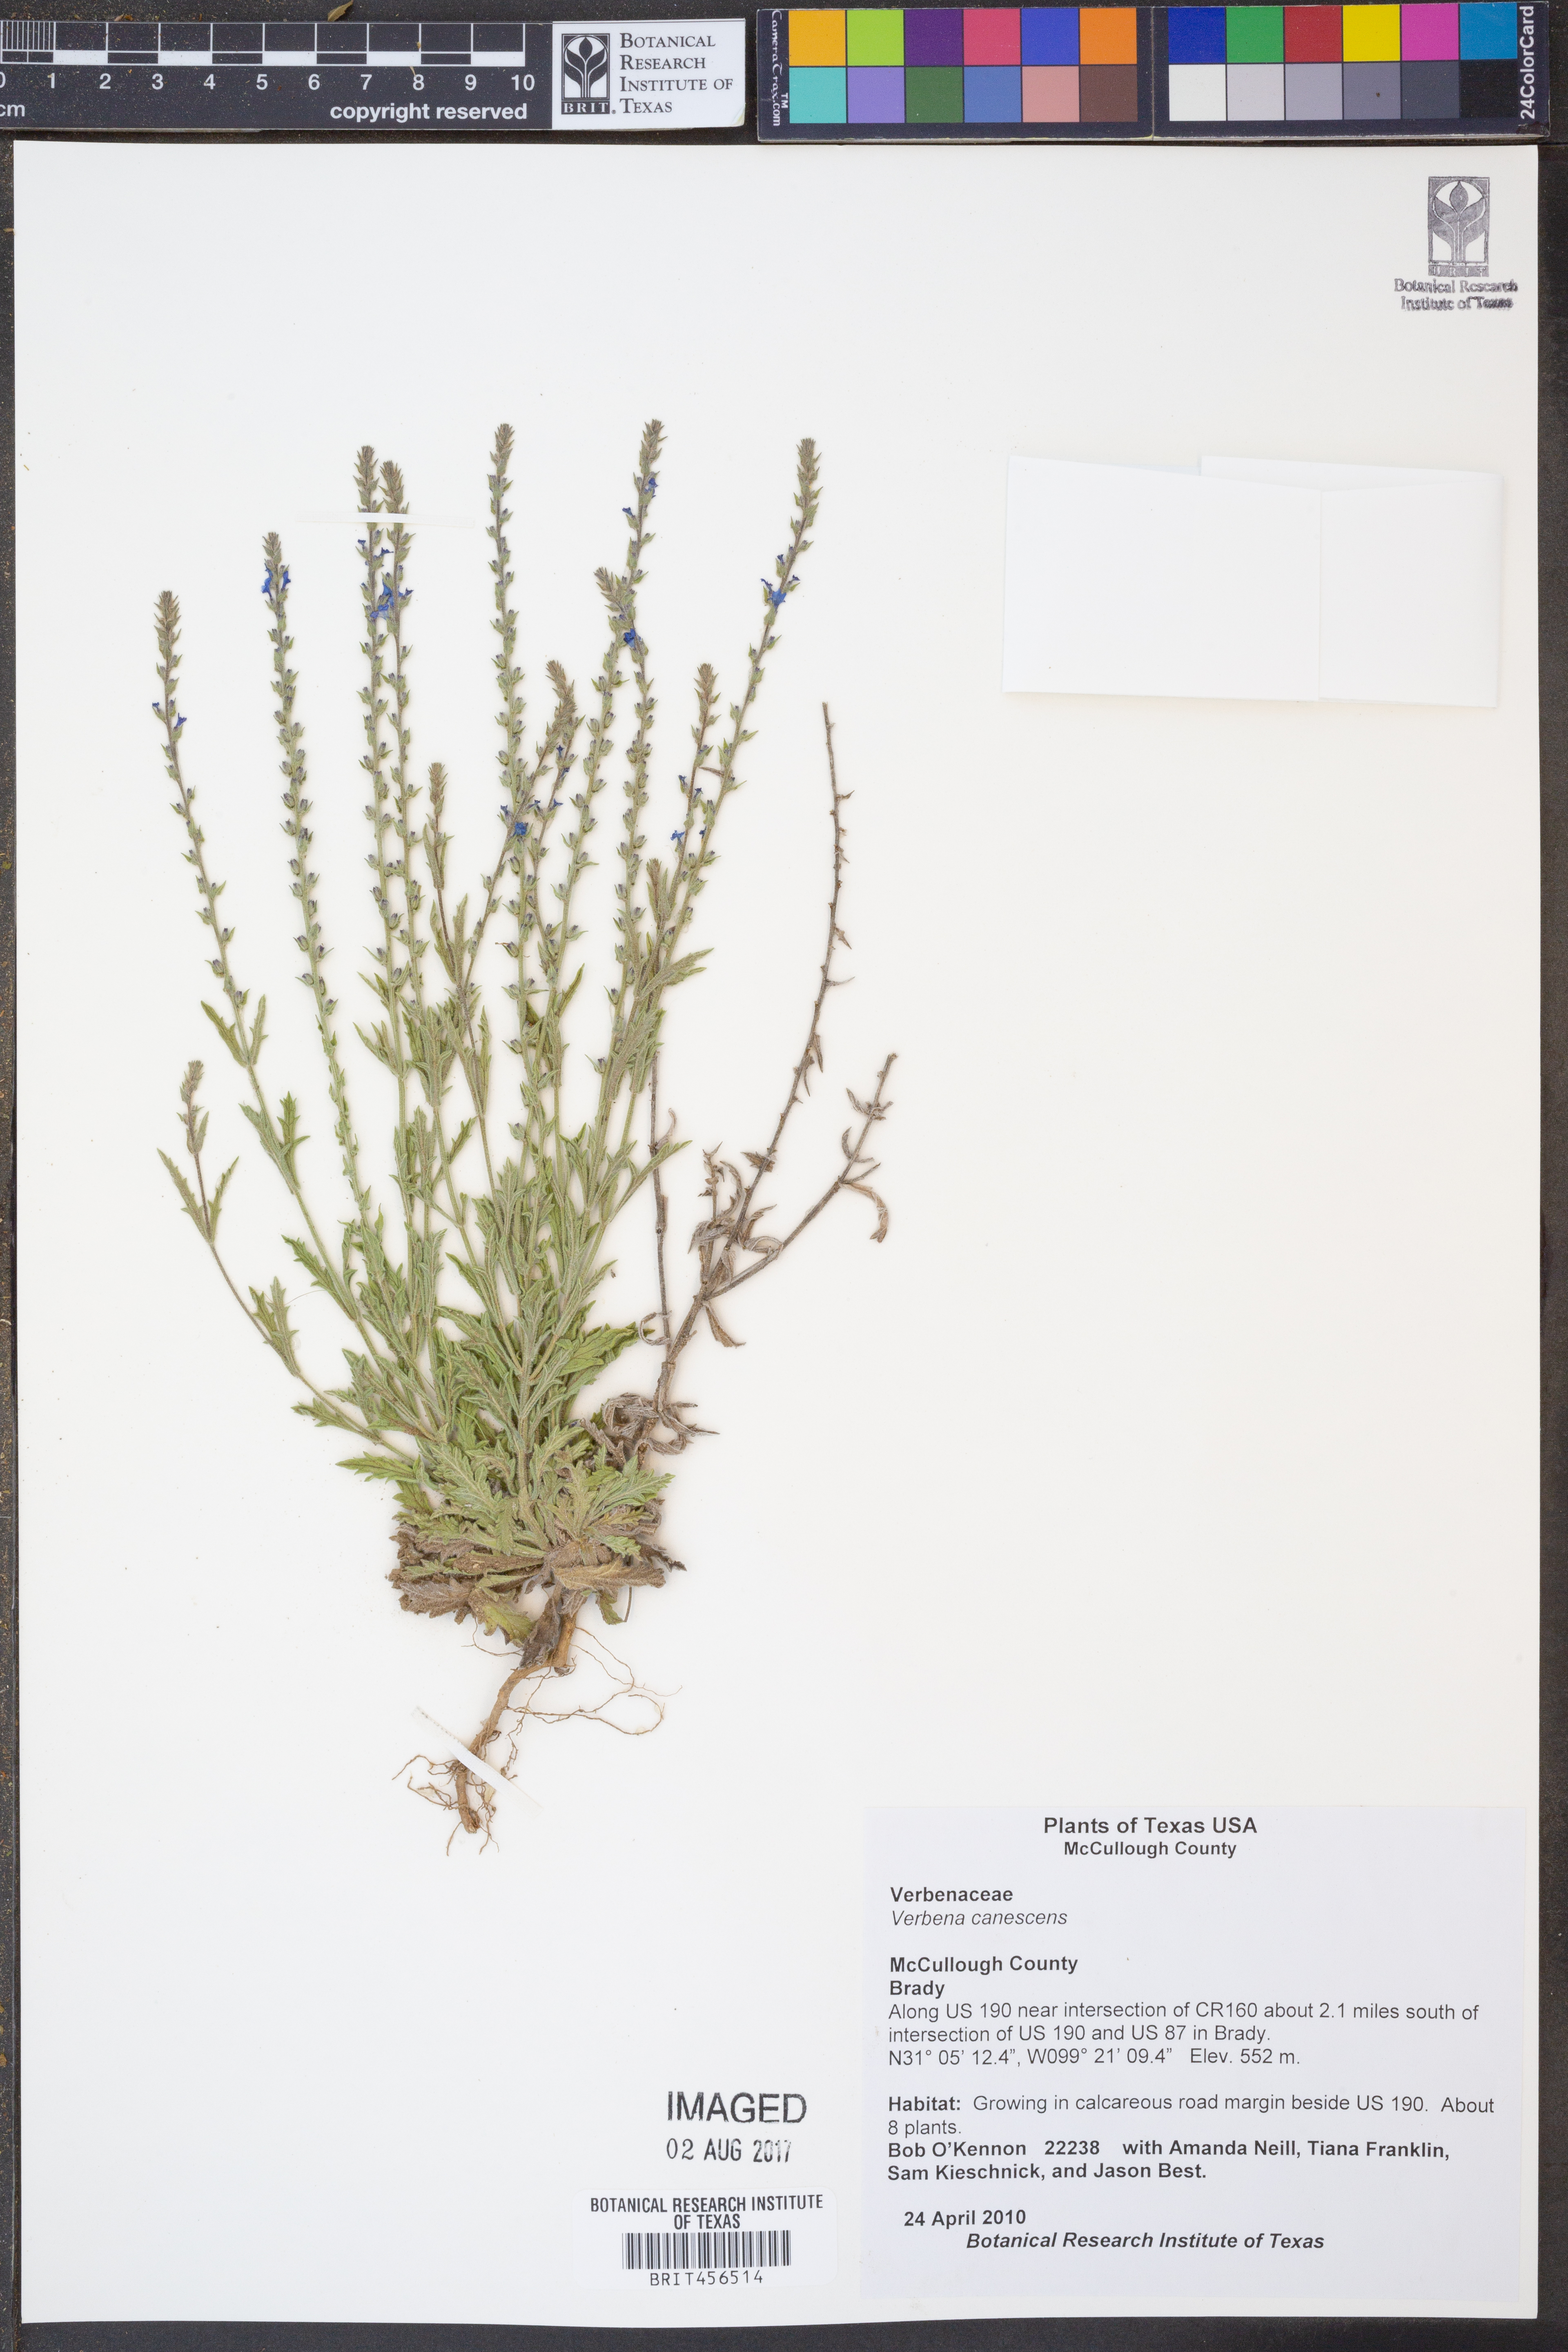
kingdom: Plantae
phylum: Tracheophyta
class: Magnoliopsida
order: Lamiales
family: Verbenaceae
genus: Verbena
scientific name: Verbena canescens
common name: Gray vervain
